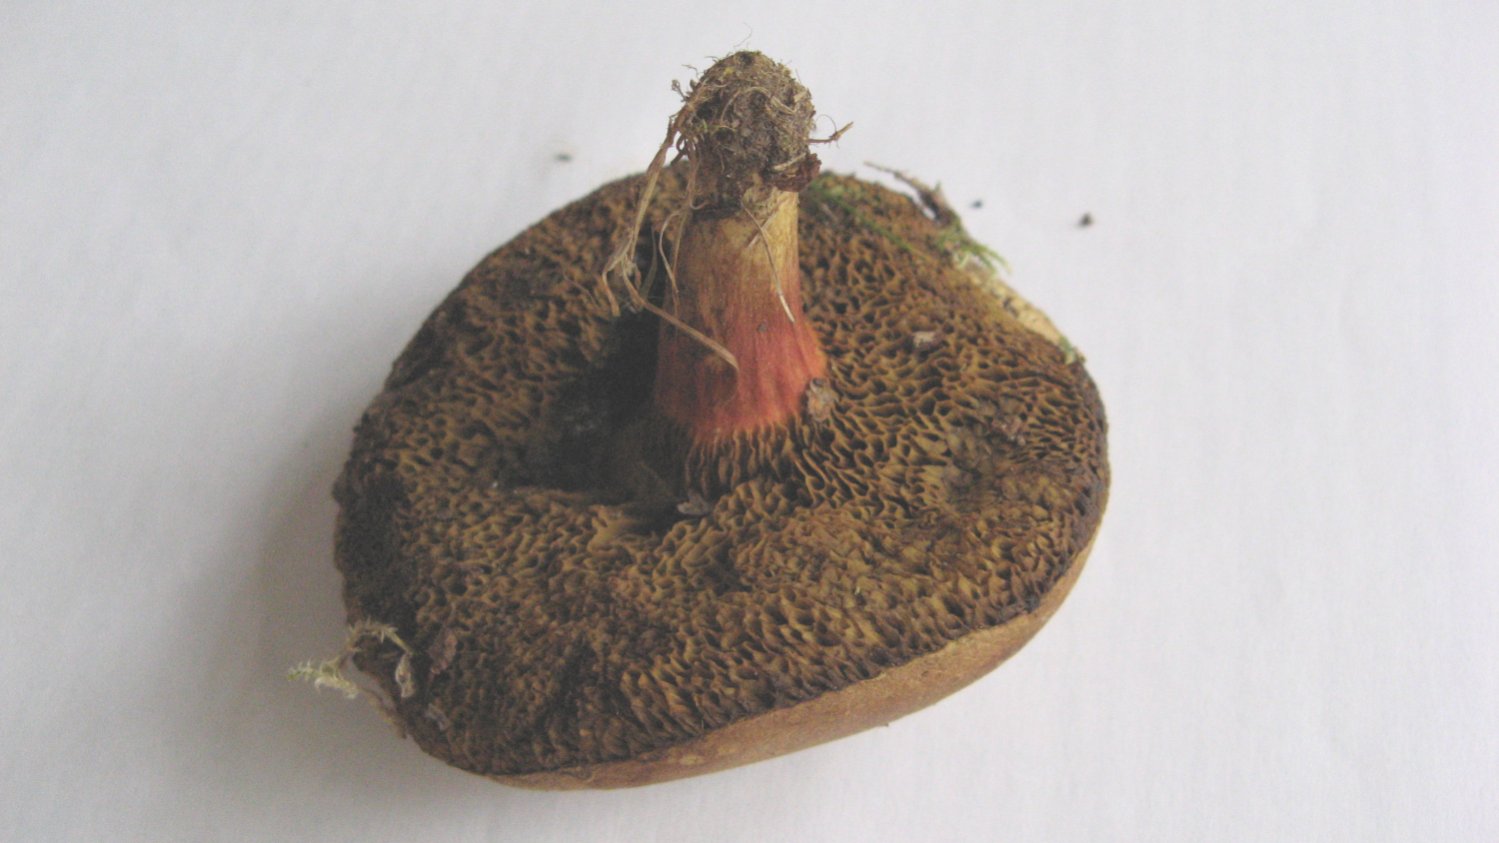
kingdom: Fungi
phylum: Basidiomycota
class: Agaricomycetes
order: Boletales
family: Boletaceae
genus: Xerocomellus
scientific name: Xerocomellus chrysenteron
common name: rødsprukken rørhat
